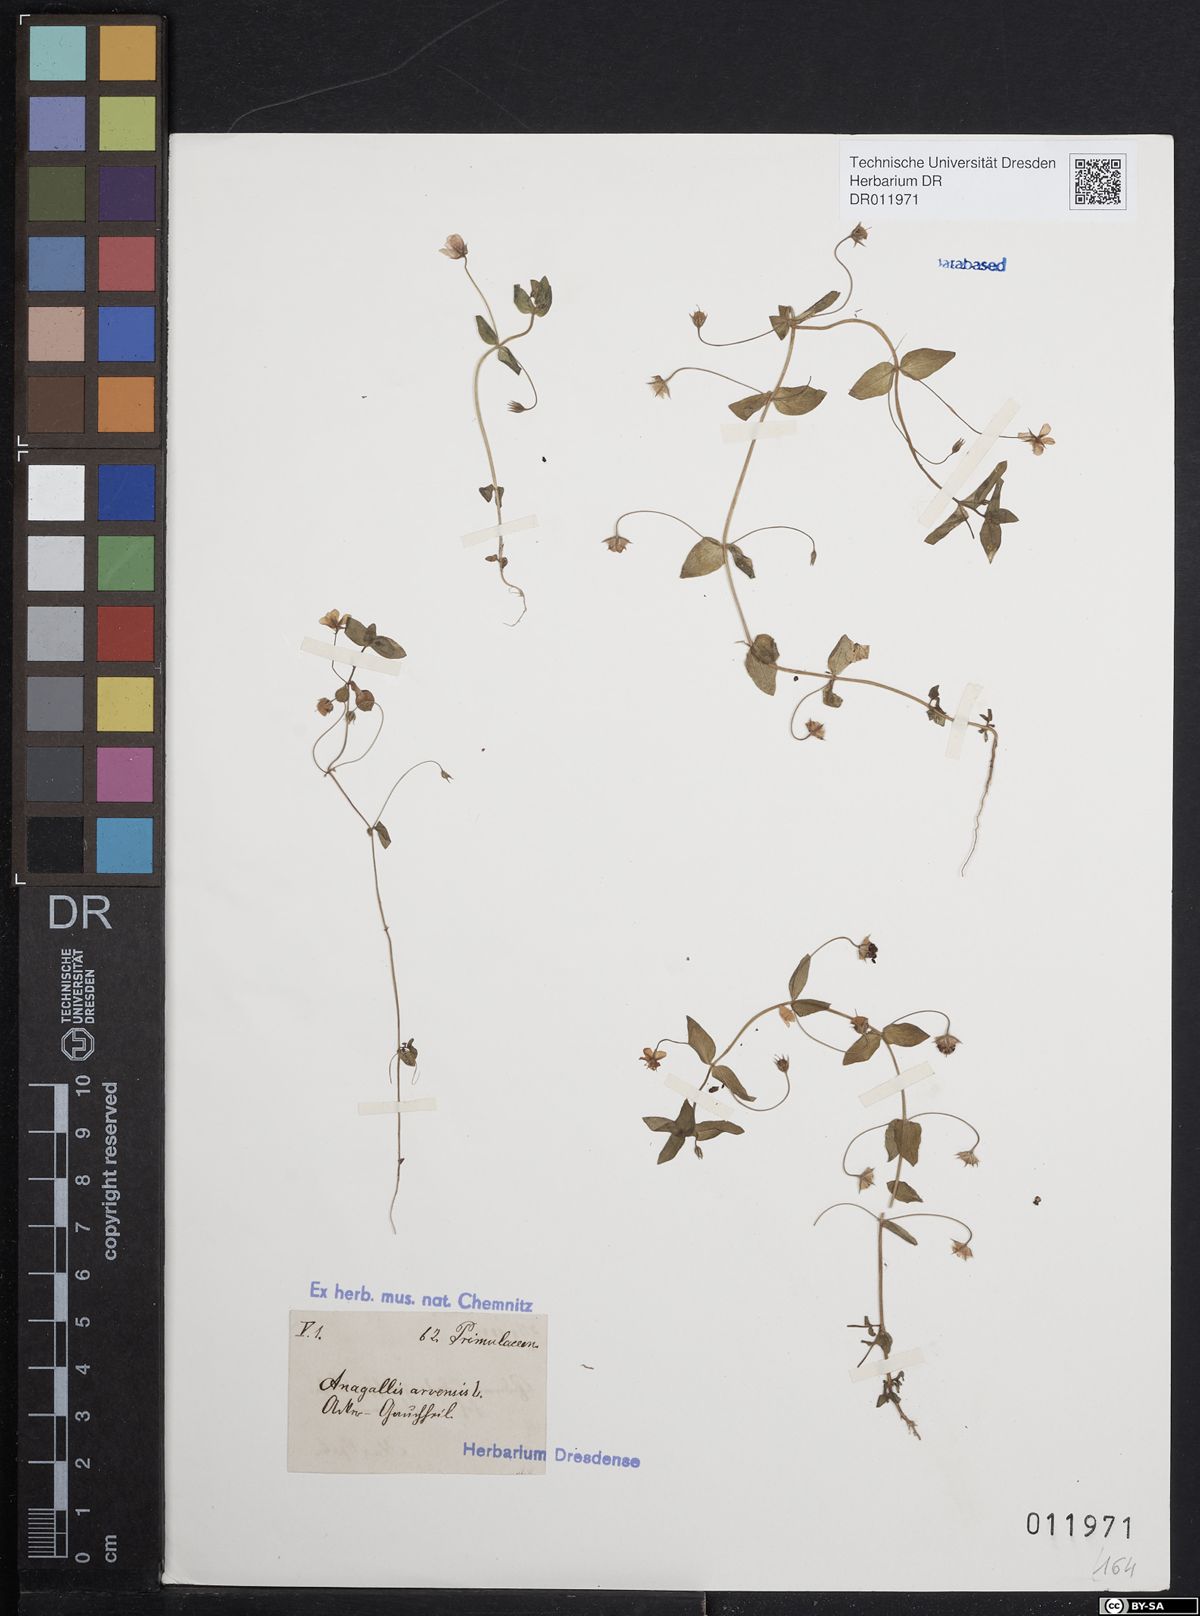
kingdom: Plantae
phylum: Tracheophyta
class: Magnoliopsida
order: Ericales
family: Primulaceae
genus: Lysimachia
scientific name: Lysimachia arvensis
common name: Scarlet pimpernel
